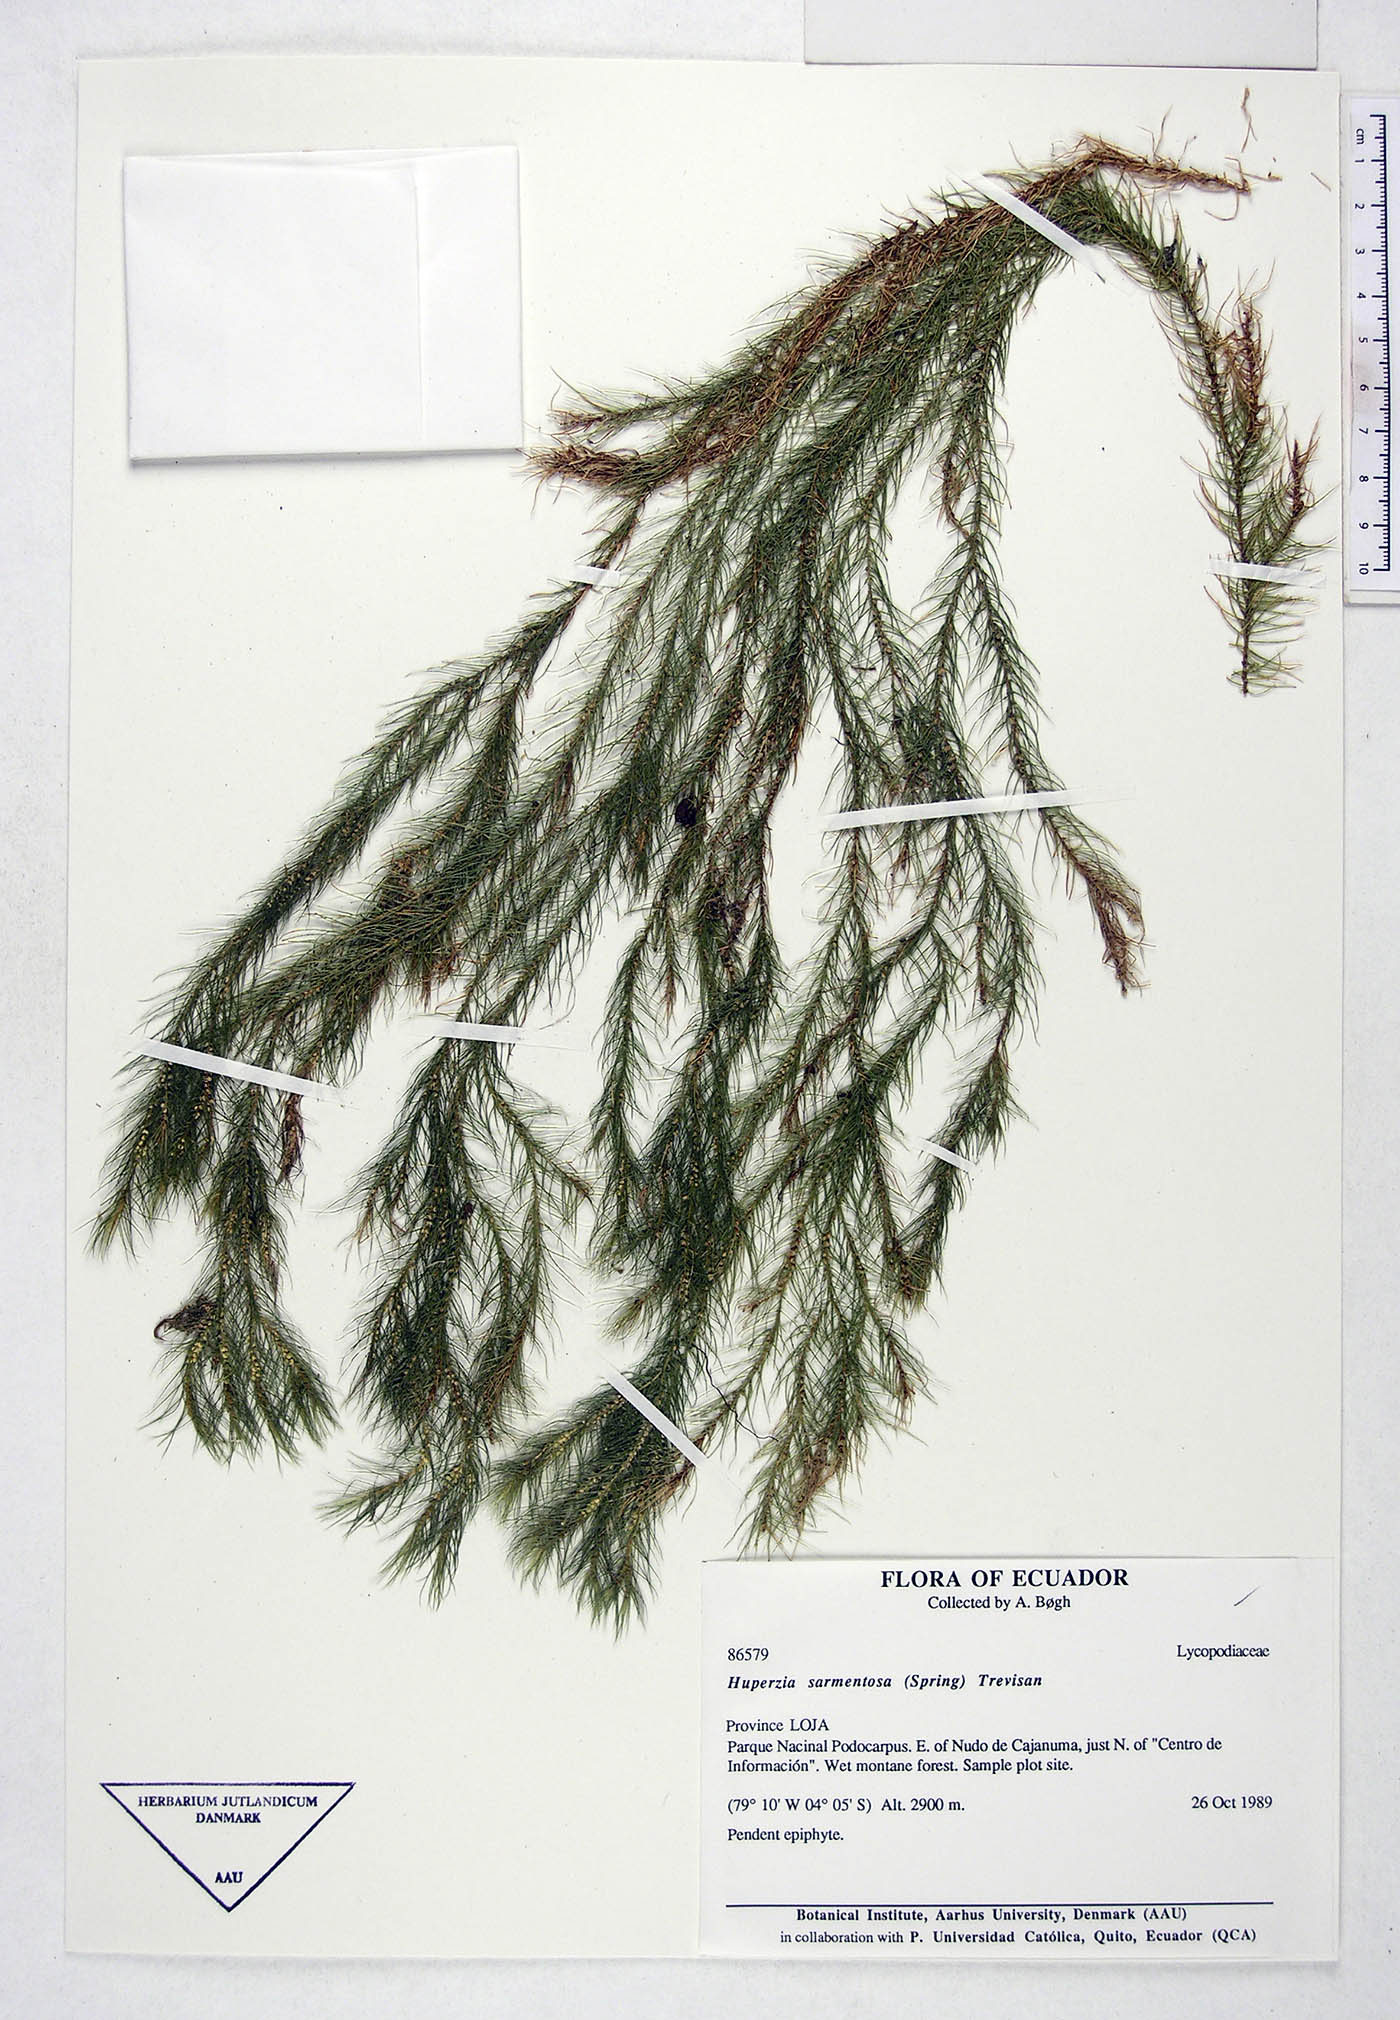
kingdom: Plantae
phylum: Tracheophyta
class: Lycopodiopsida
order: Lycopodiales
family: Lycopodiaceae
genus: Phlegmariurus
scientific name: Phlegmariurus sarmentosus
